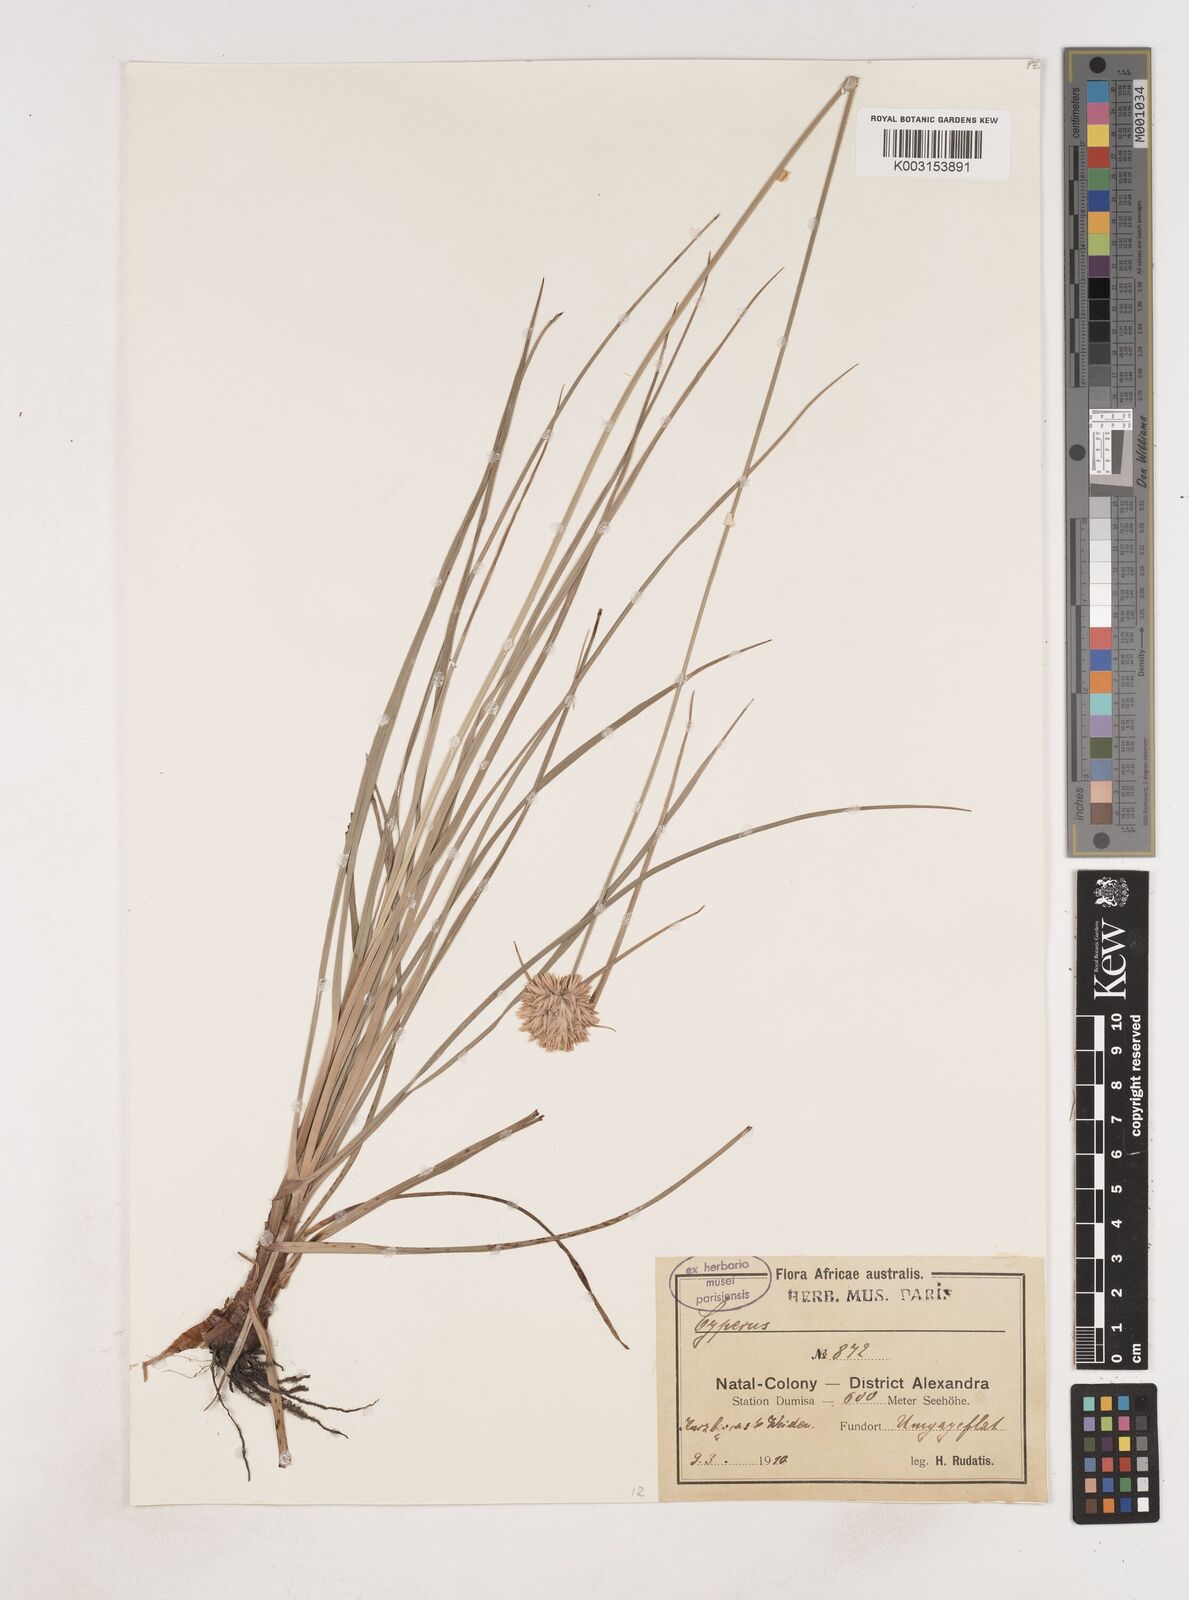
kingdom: Plantae
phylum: Tracheophyta
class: Liliopsida
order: Poales
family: Cyperaceae
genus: Cyperus
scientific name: Cyperus
